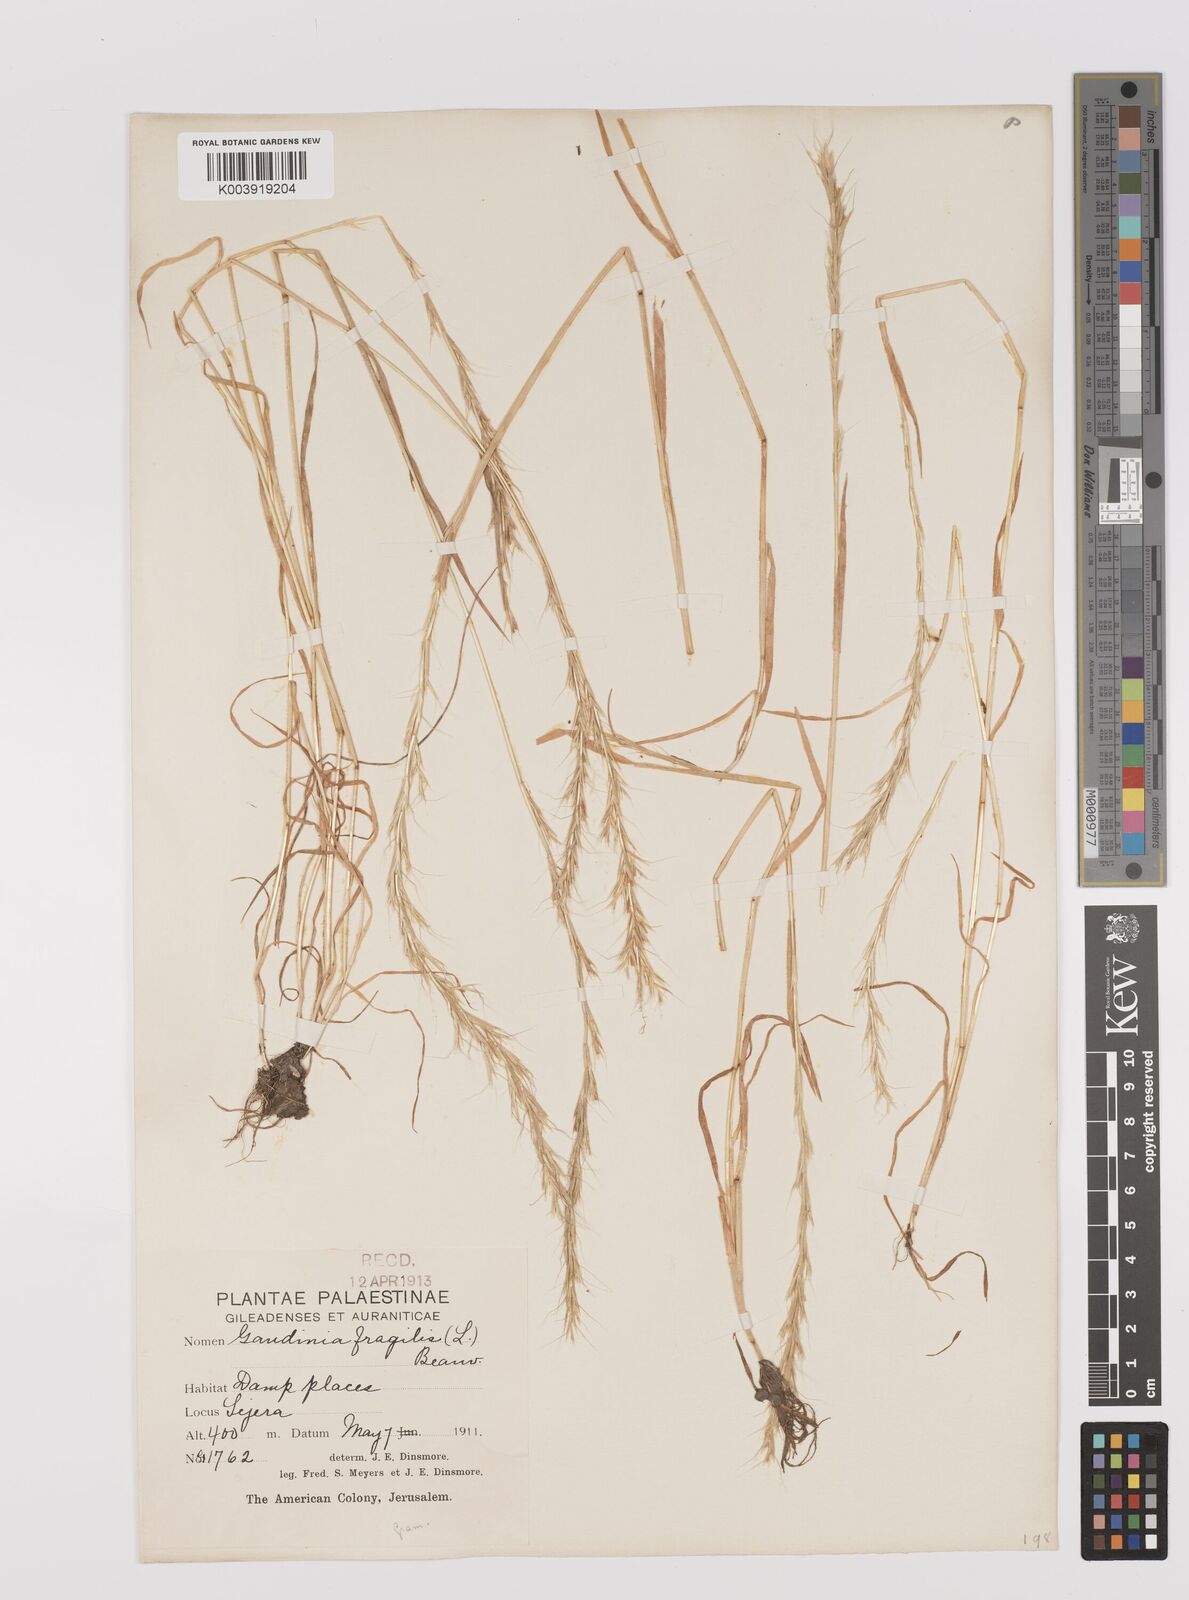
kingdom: Plantae
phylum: Tracheophyta
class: Liliopsida
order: Poales
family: Poaceae
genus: Gaudinia
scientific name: Gaudinia fragilis
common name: French oat-grass
